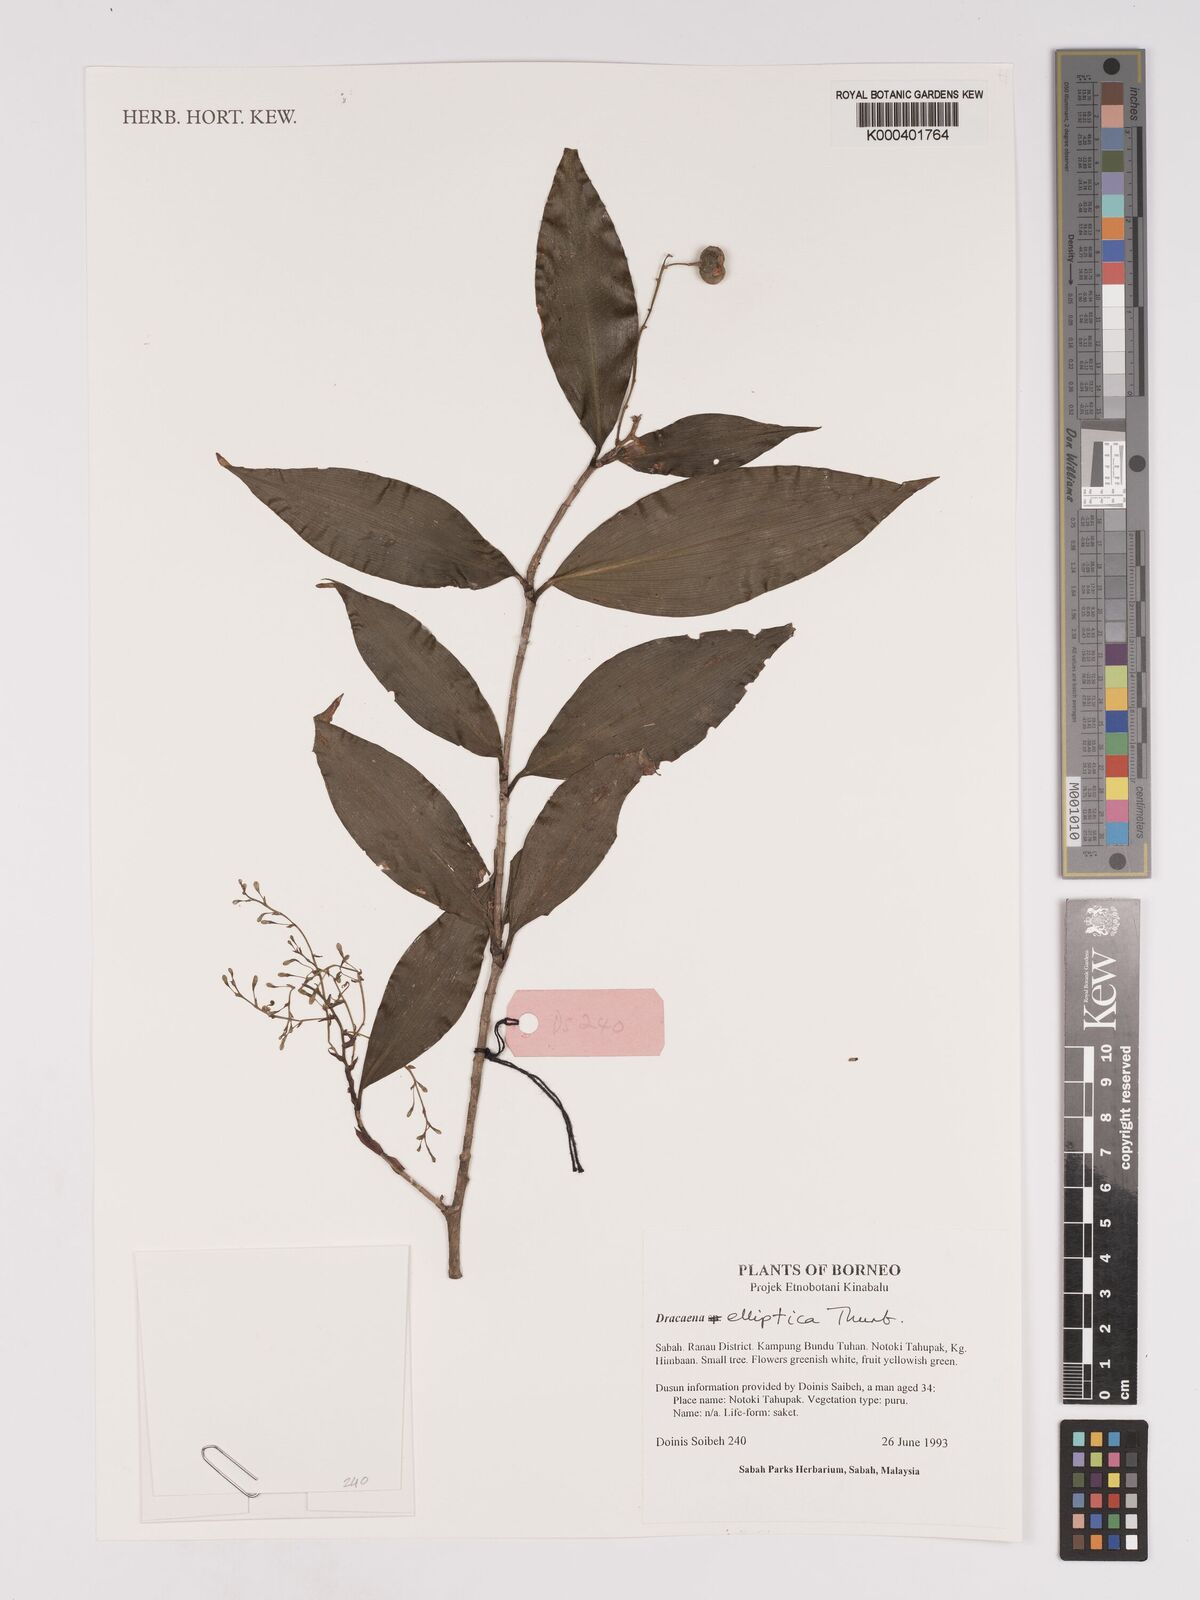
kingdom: Plantae
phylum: Tracheophyta
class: Liliopsida
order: Asparagales
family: Asparagaceae
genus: Dracaena
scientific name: Dracaena elliptica
